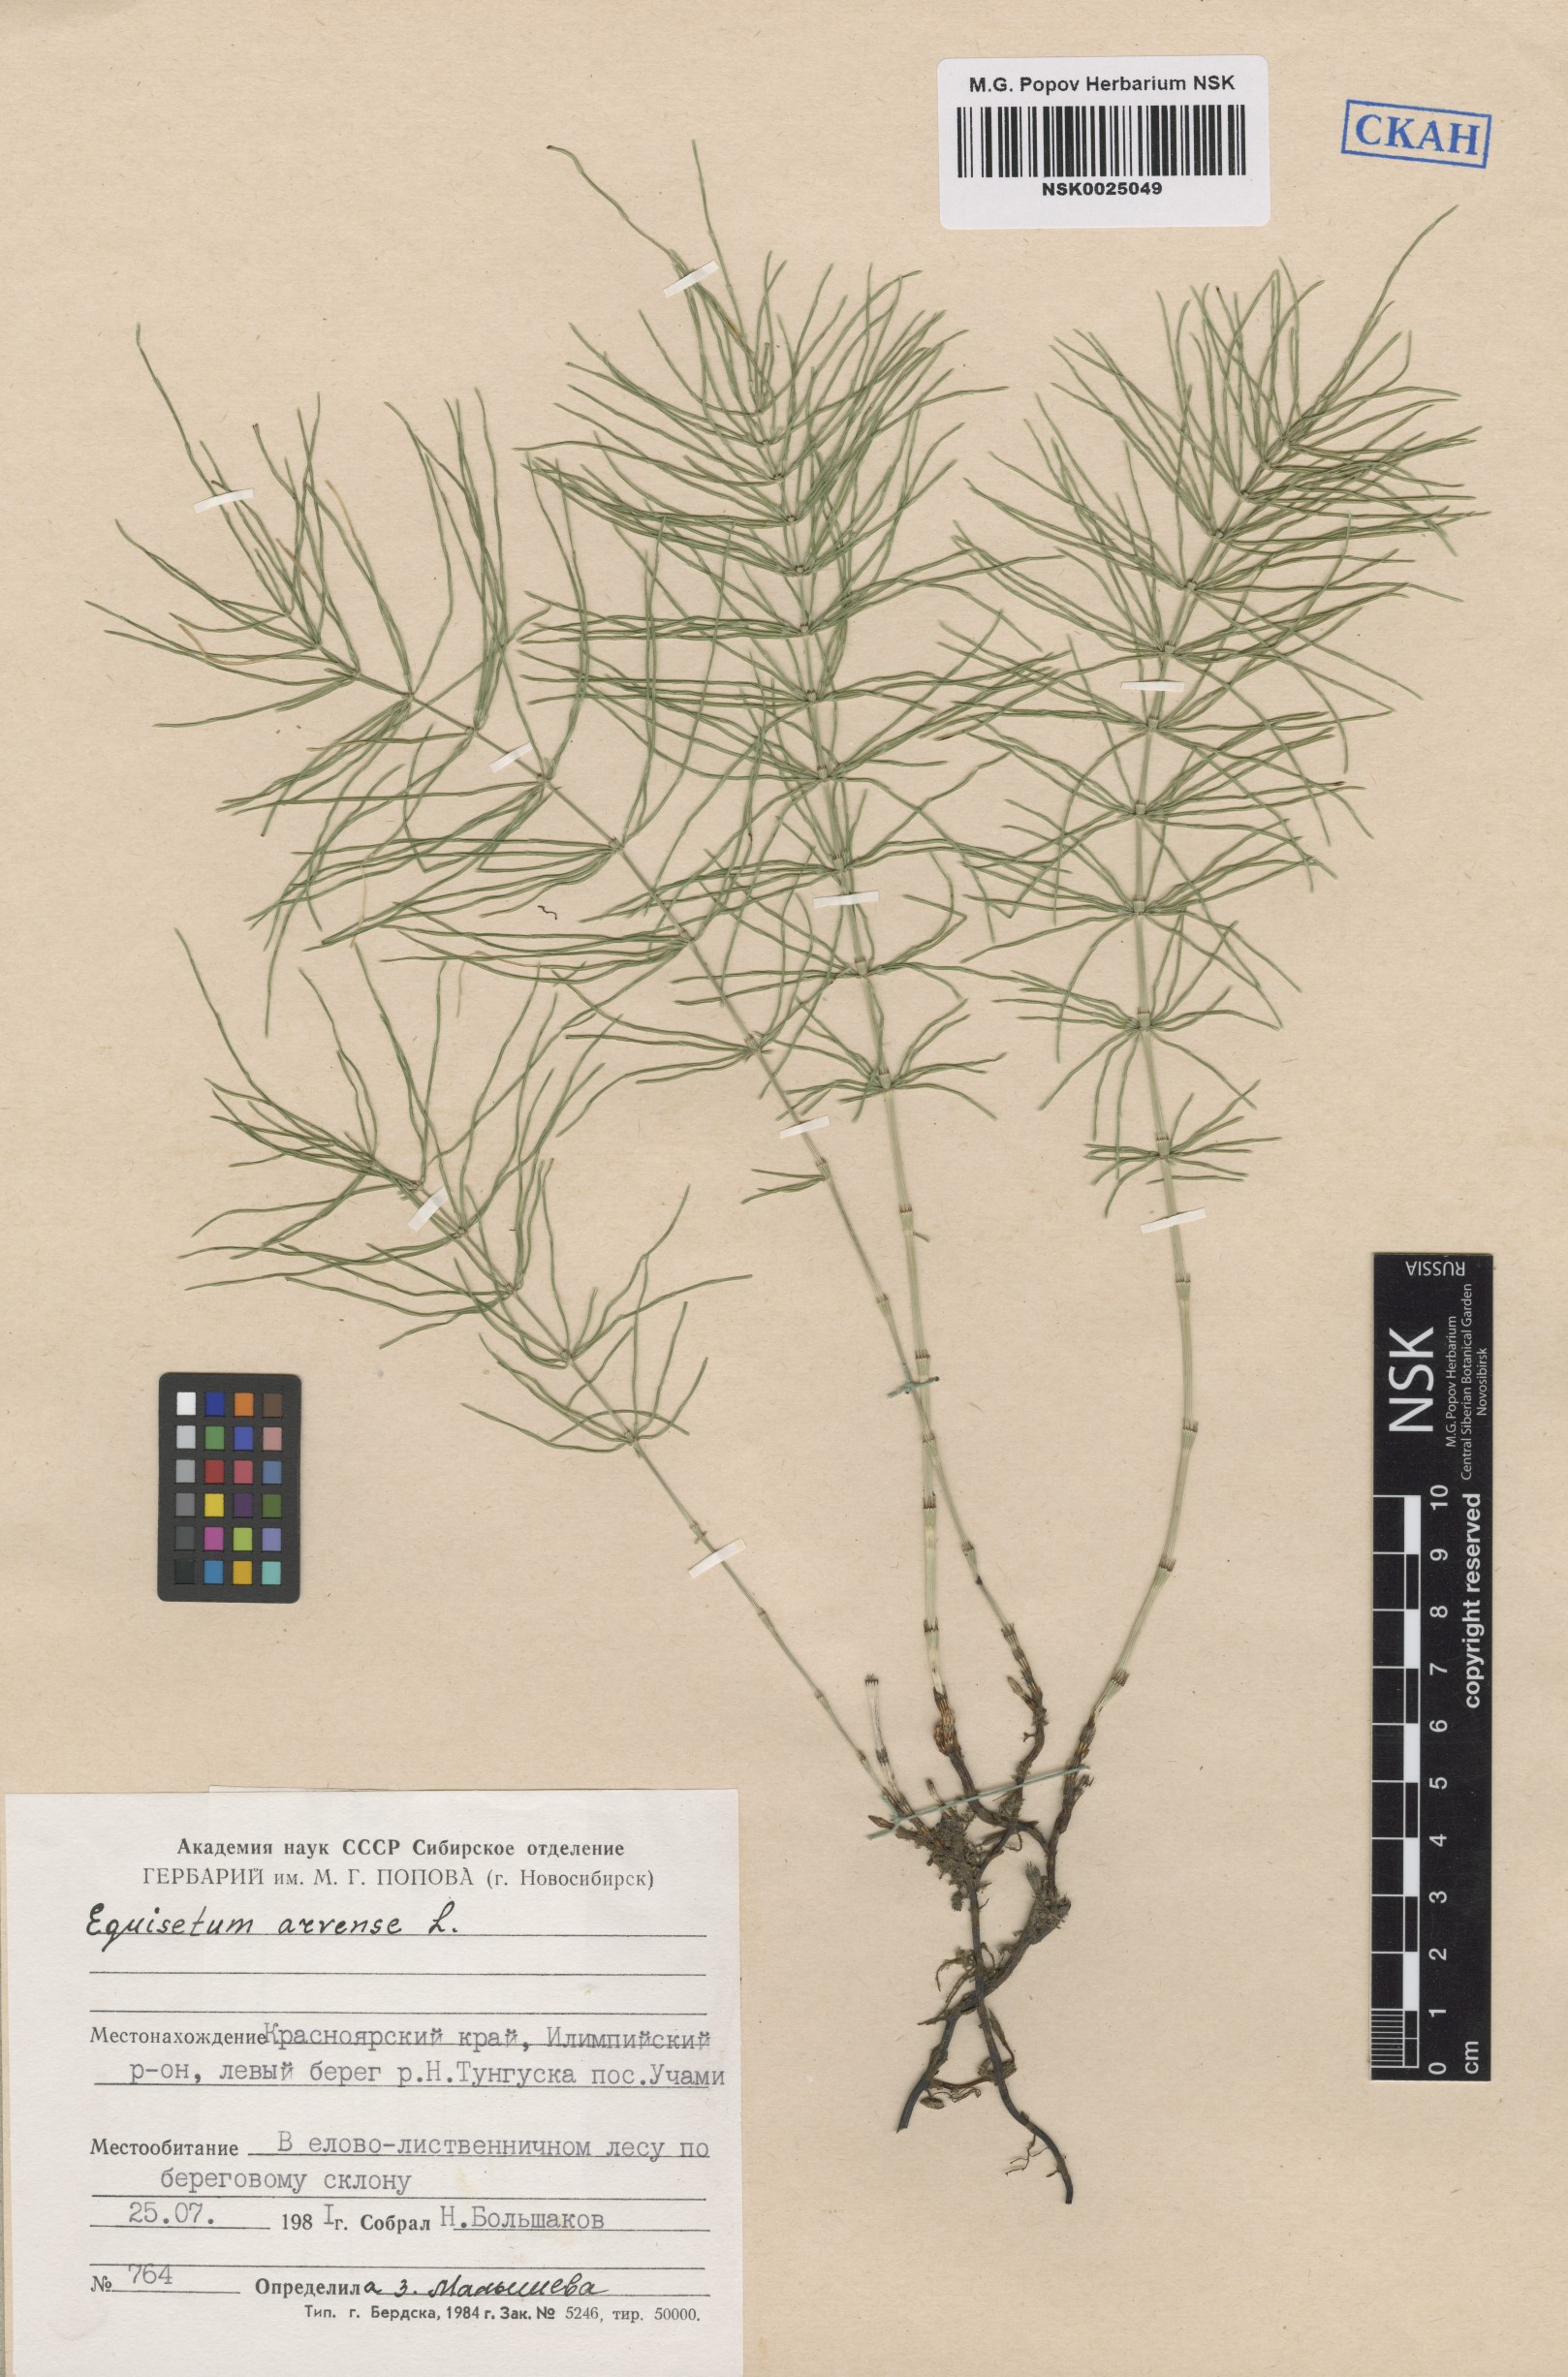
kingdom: Plantae
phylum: Tracheophyta
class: Polypodiopsida
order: Equisetales
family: Equisetaceae
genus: Equisetum
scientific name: Equisetum arvense
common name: Field horsetail
